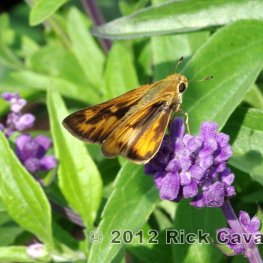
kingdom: Animalia
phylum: Arthropoda
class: Insecta
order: Lepidoptera
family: Hesperiidae
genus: Hylephila
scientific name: Hylephila phyleus
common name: Fiery Skipper
